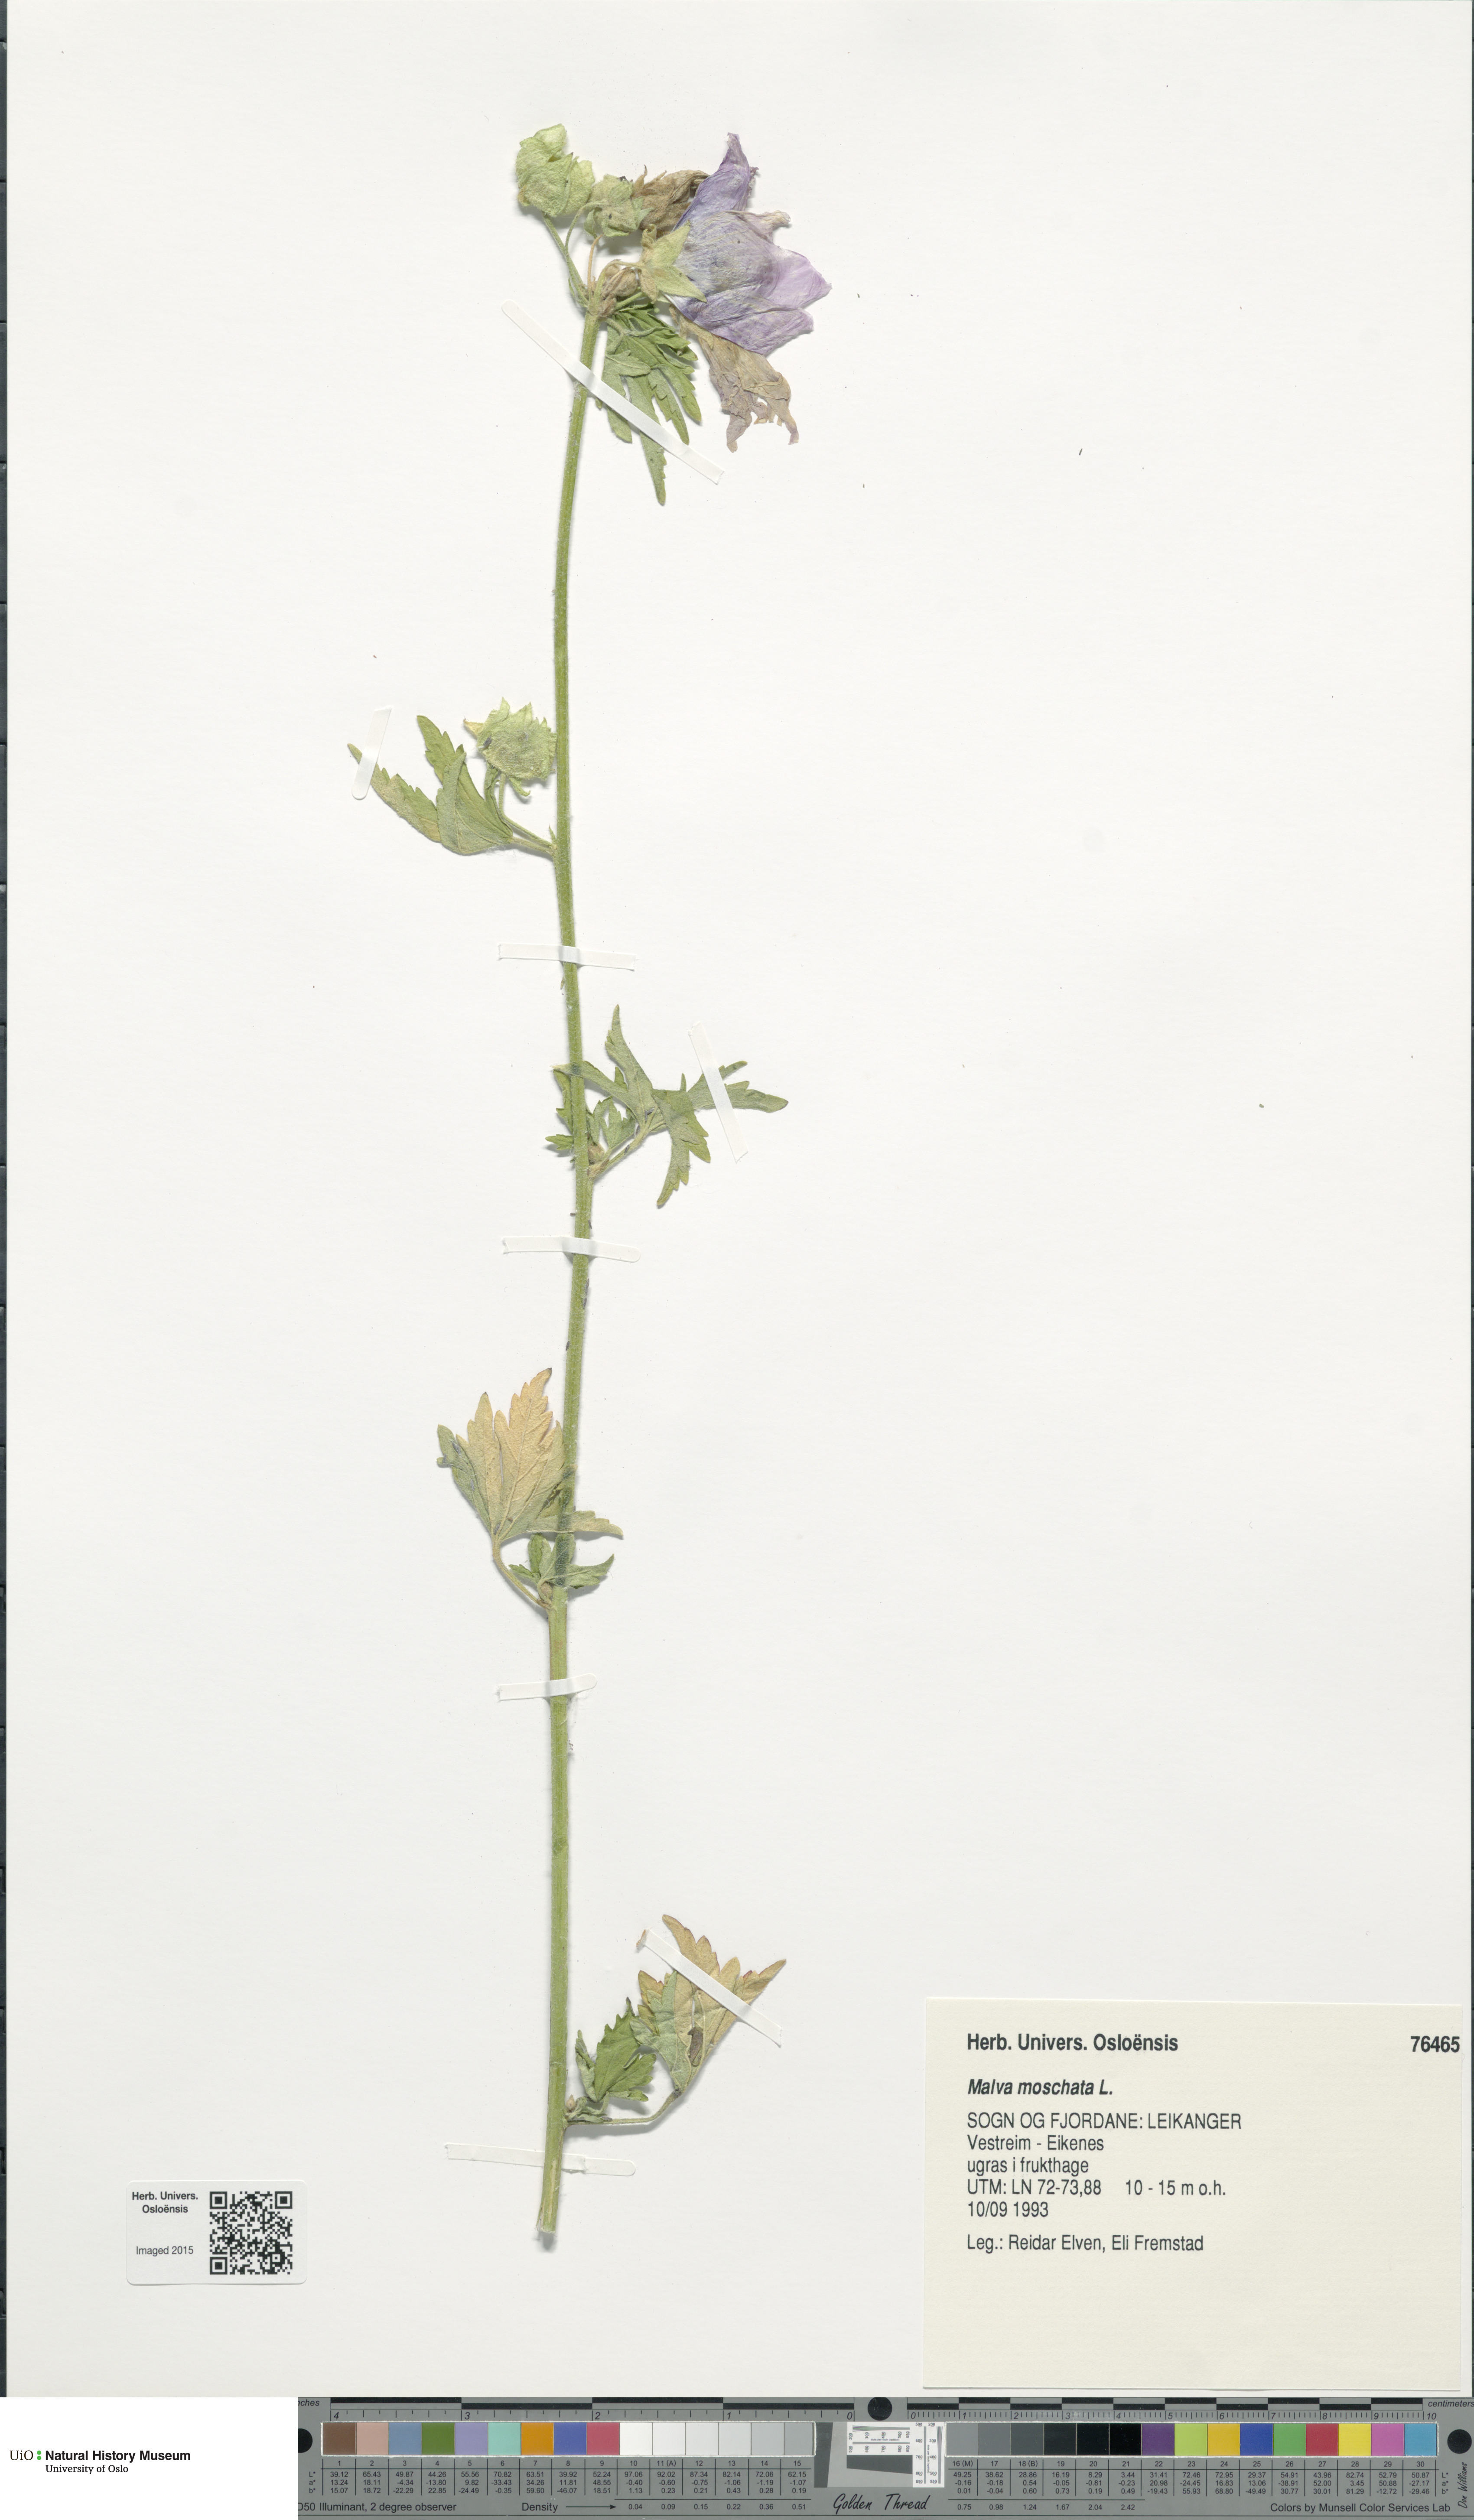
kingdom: Plantae
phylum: Tracheophyta
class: Magnoliopsida
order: Malvales
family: Malvaceae
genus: Malva
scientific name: Malva moschata
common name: Musk mallow
